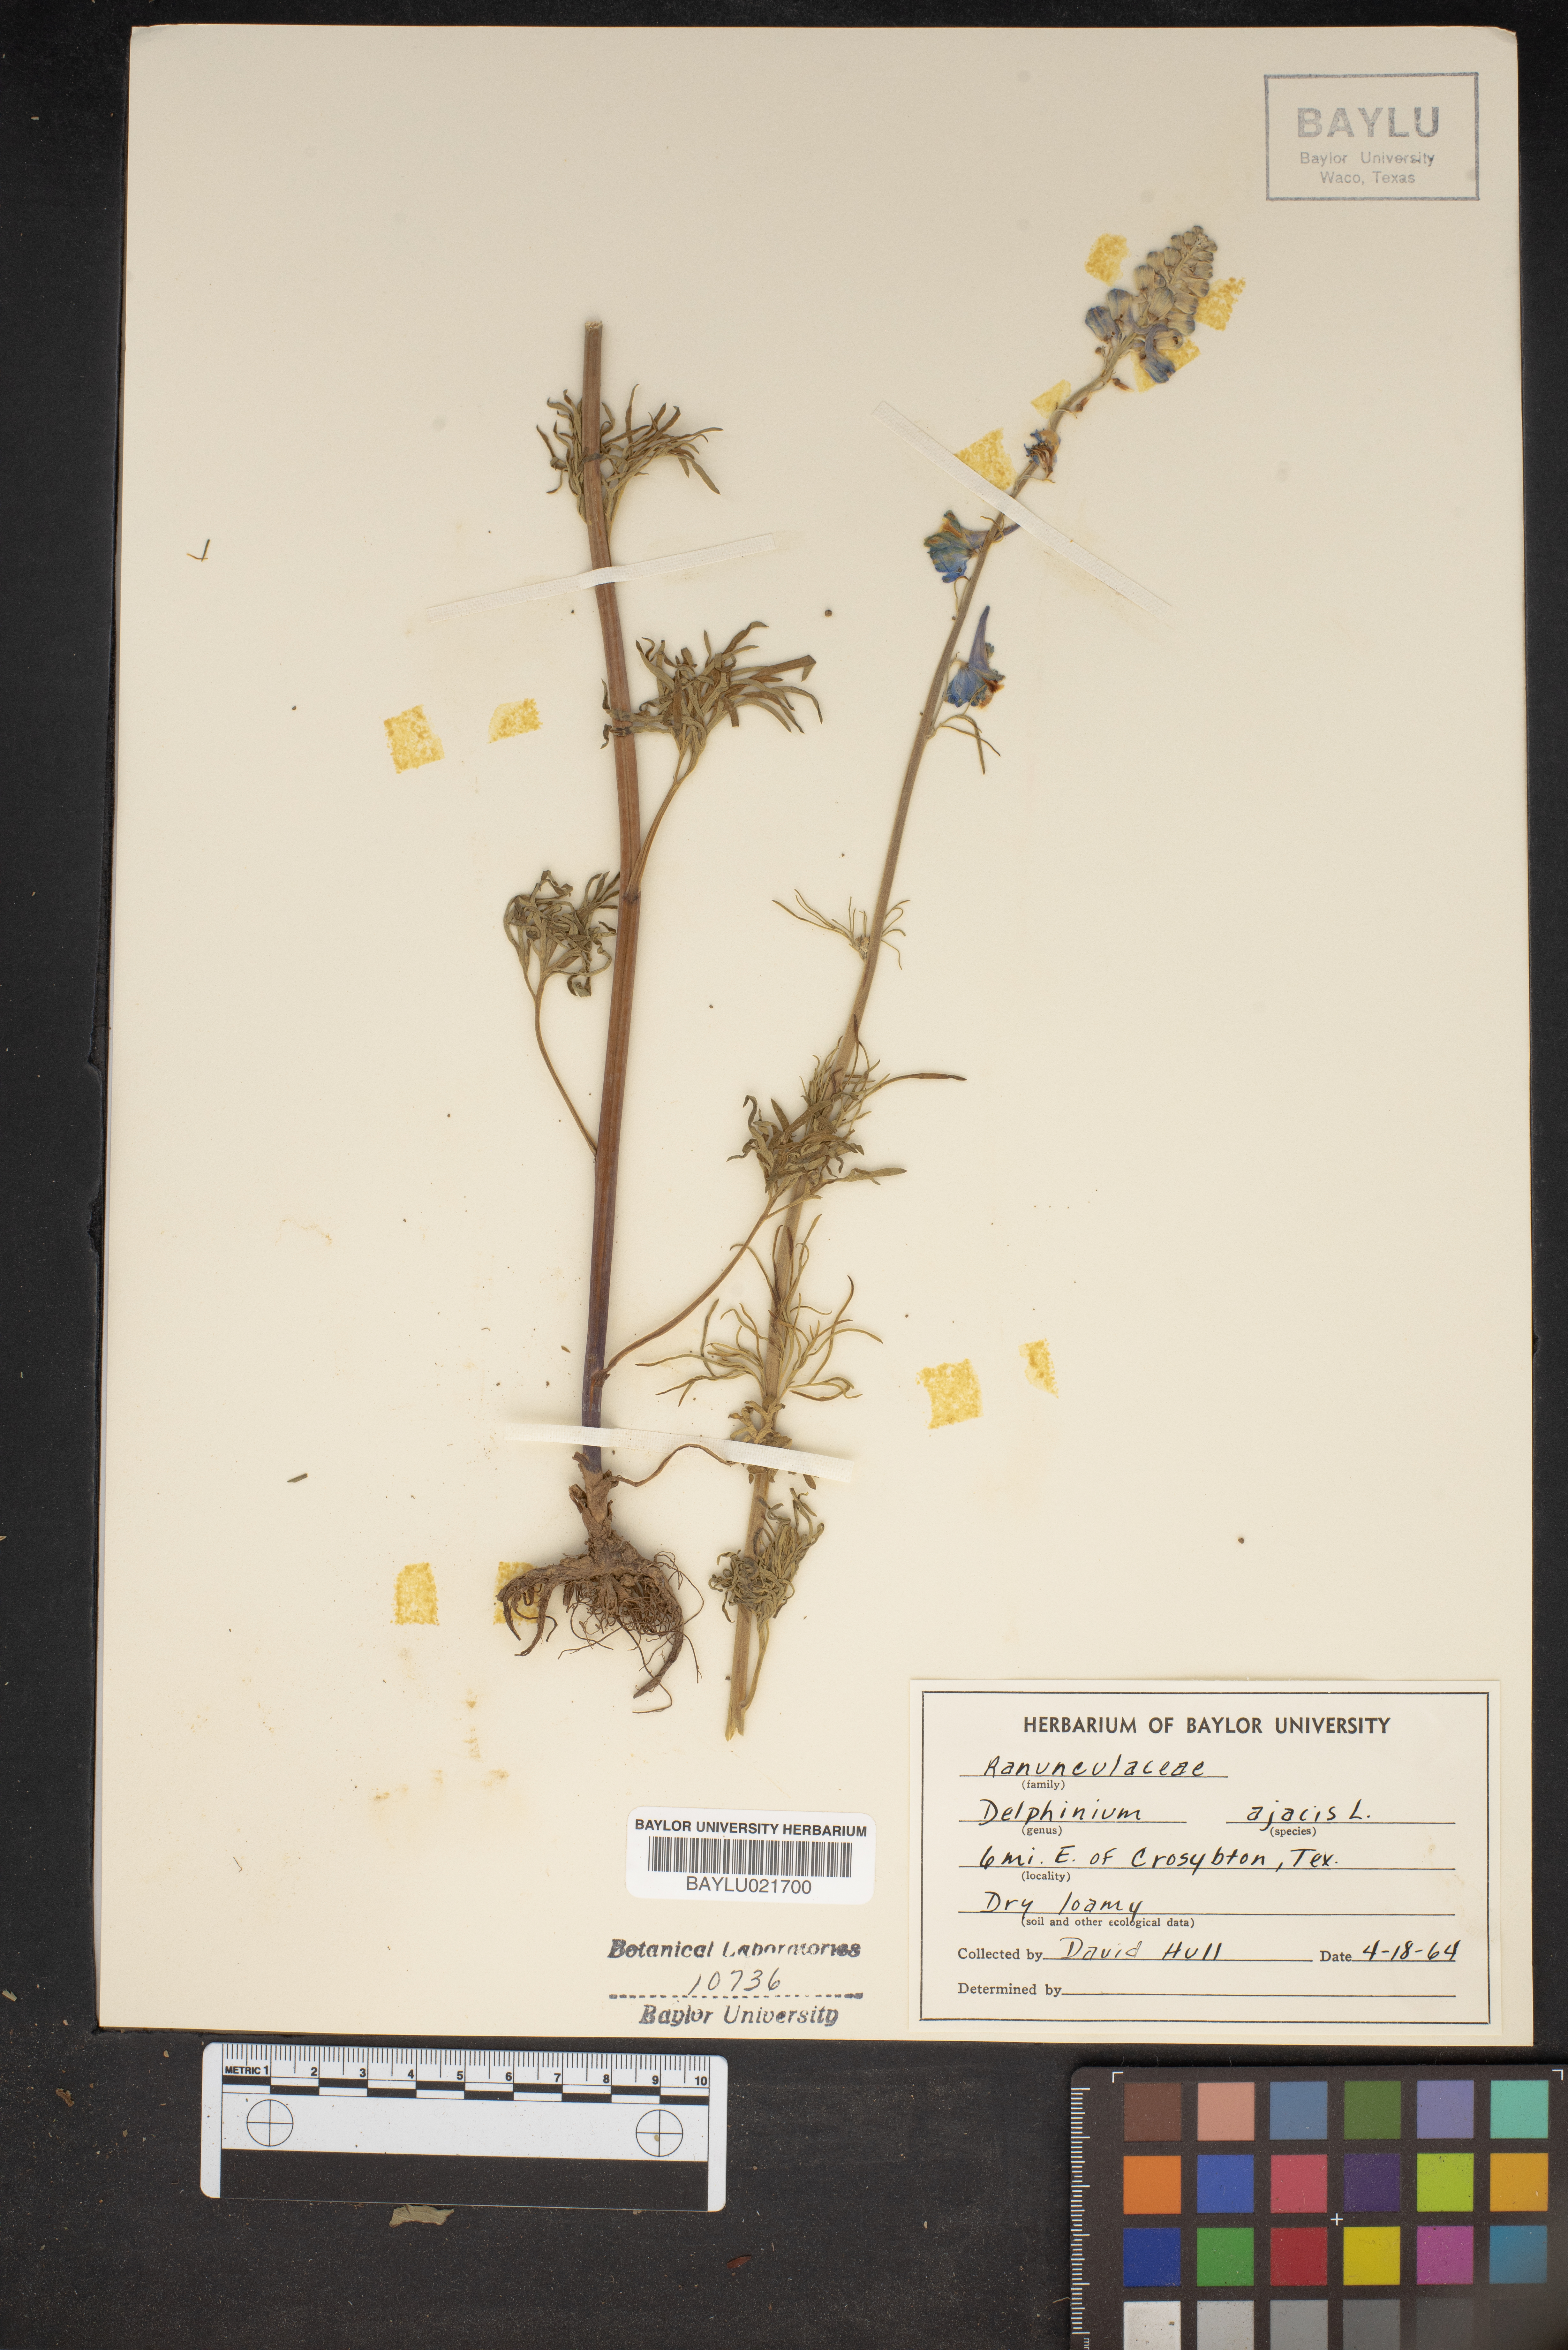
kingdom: Plantae
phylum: Tracheophyta
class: Magnoliopsida
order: Ranunculales
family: Ranunculaceae
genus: Delphinium
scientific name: Delphinium ajacis
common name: Doubtful knight's-spur
